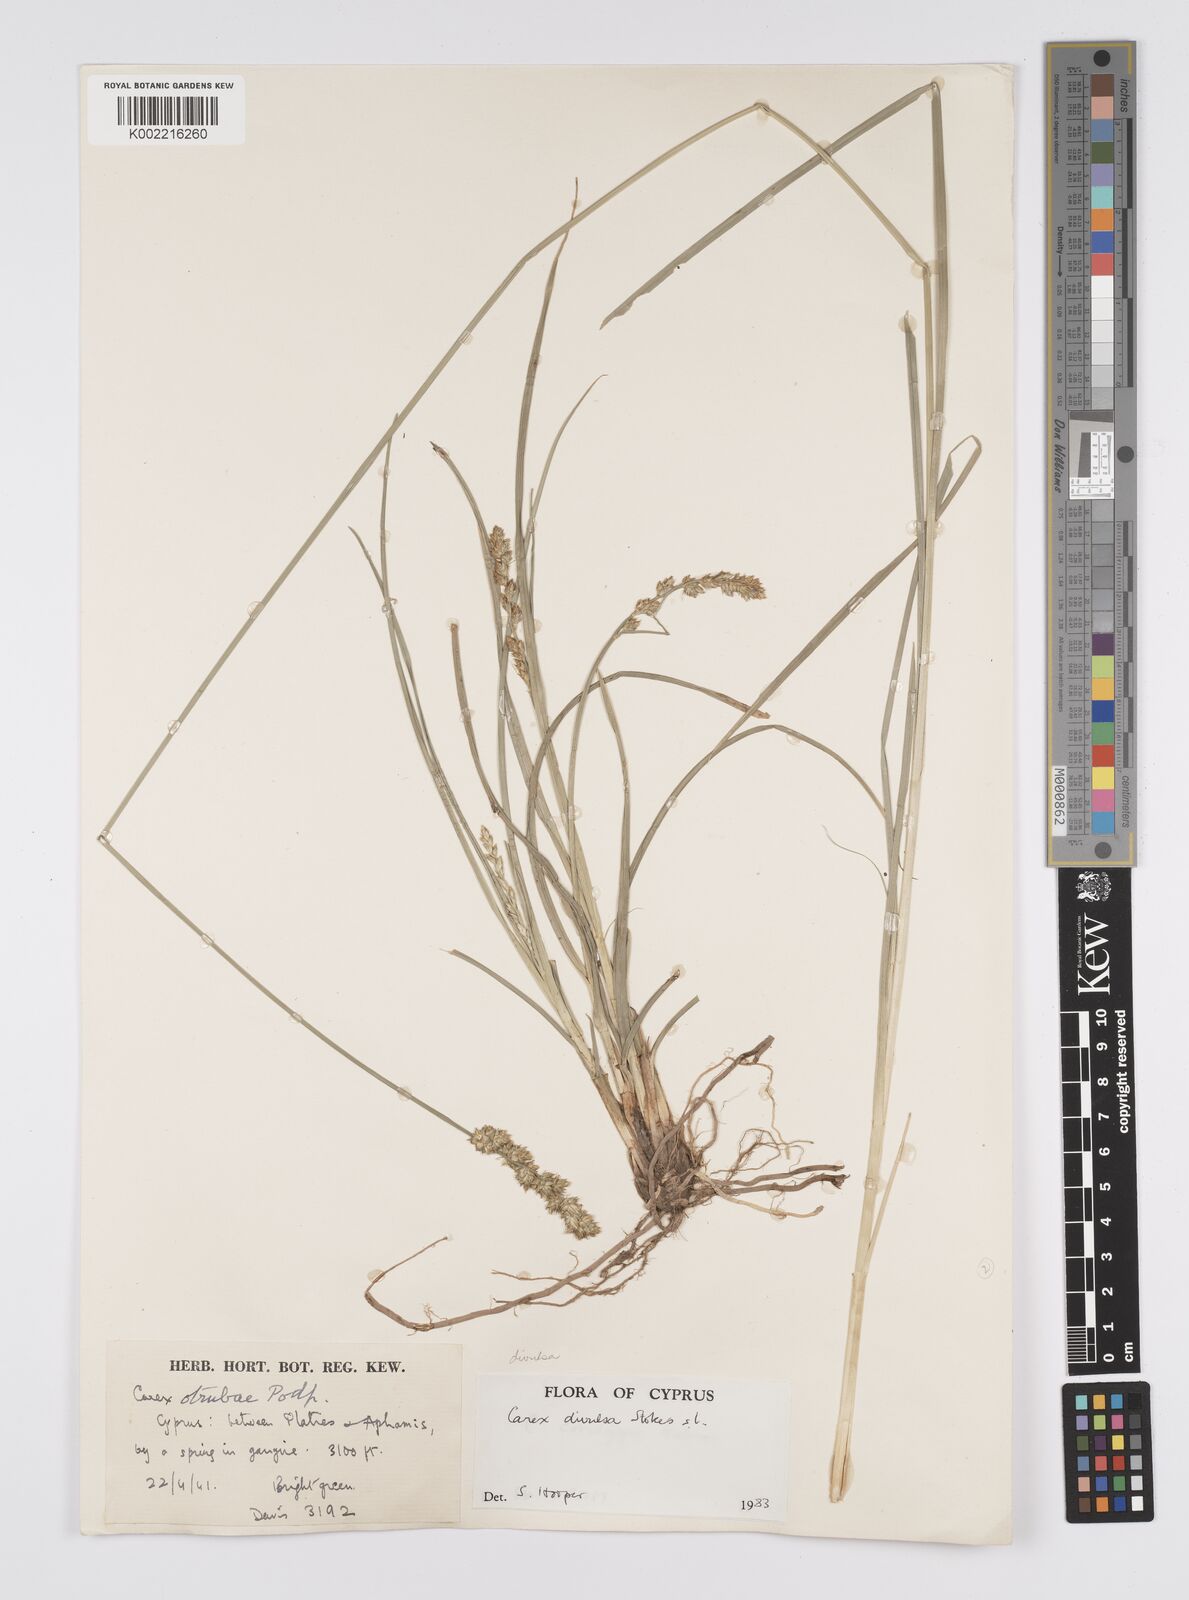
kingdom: Plantae
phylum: Tracheophyta
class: Liliopsida
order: Poales
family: Cyperaceae
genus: Carex
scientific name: Carex divulsa
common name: Grassland sedge
